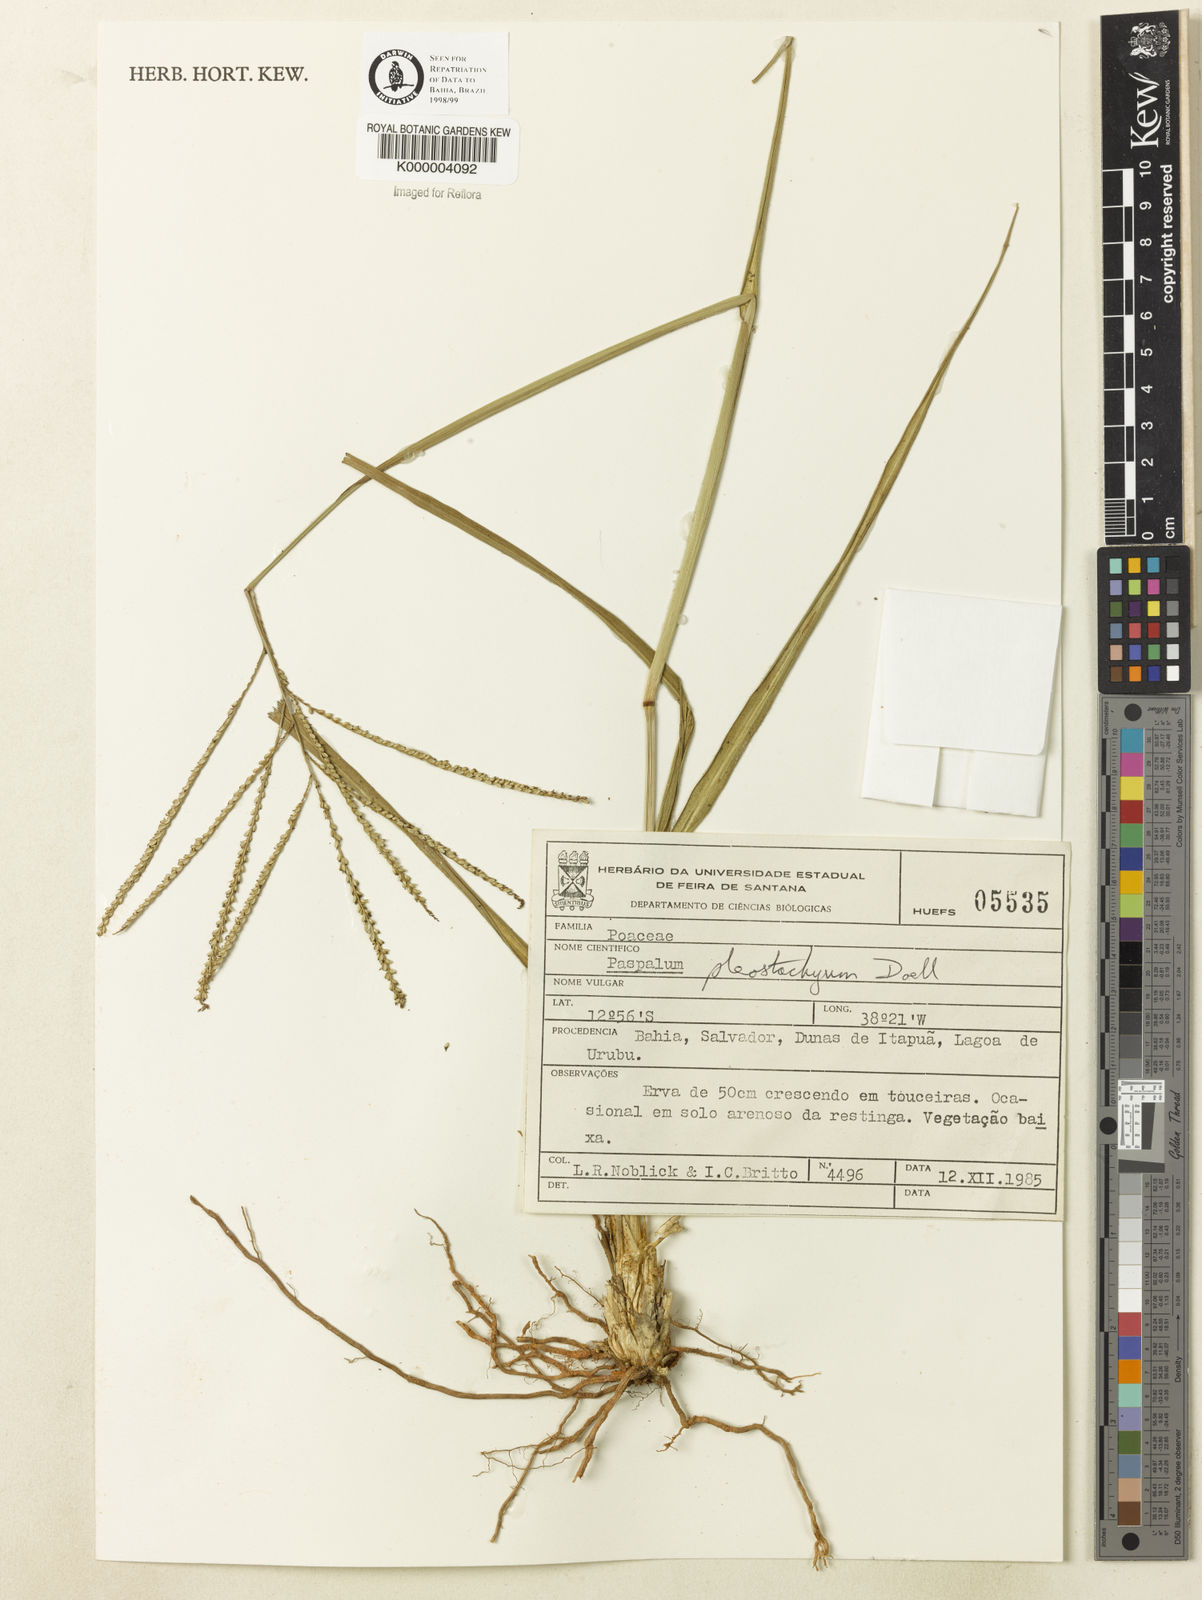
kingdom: Plantae
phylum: Tracheophyta
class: Liliopsida
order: Poales
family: Poaceae
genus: Paspalum
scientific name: Paspalum
